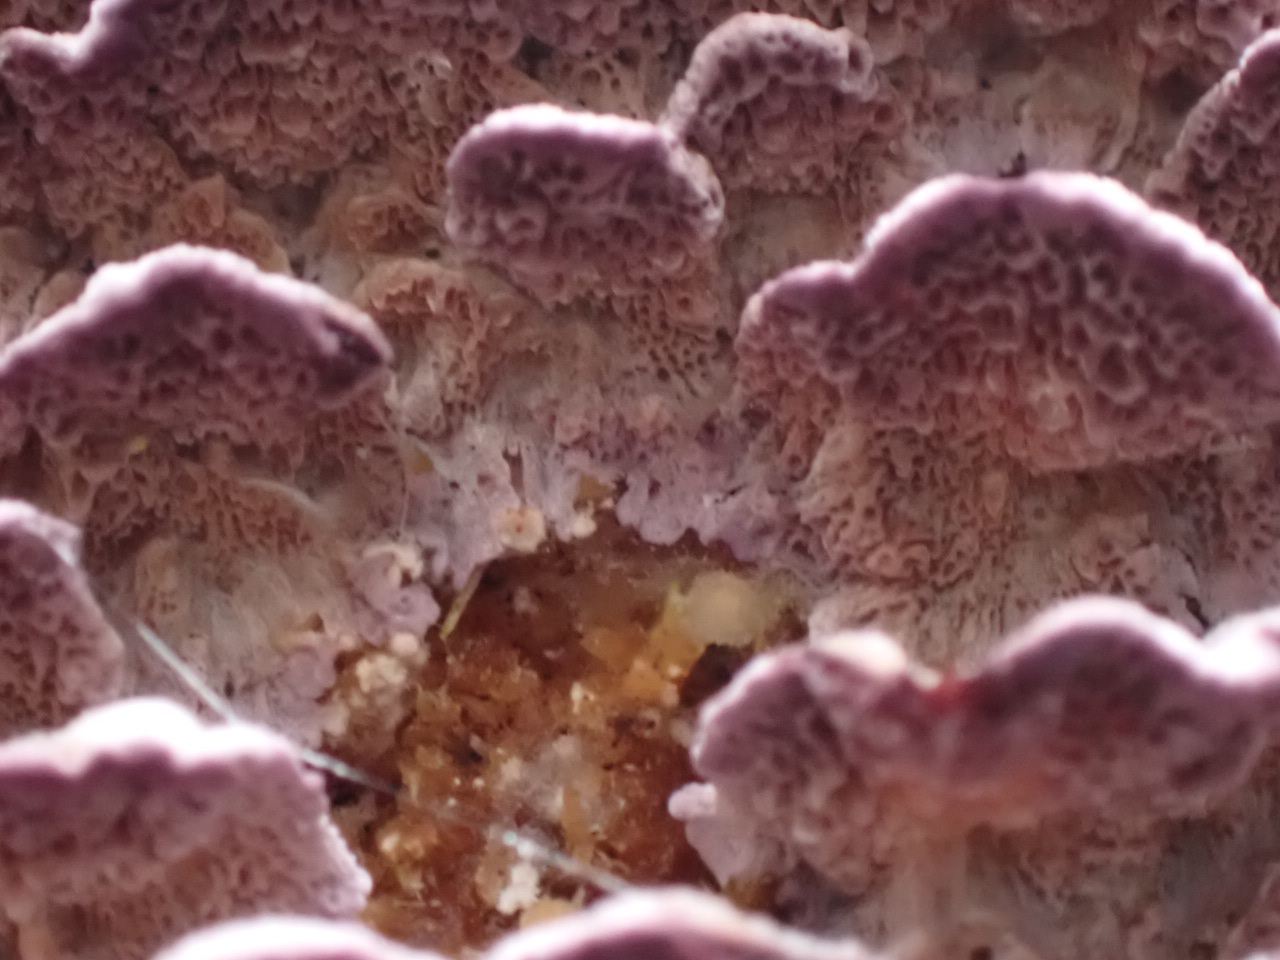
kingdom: Fungi
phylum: Basidiomycota
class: Agaricomycetes
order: Hymenochaetales
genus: Trichaptum
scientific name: Trichaptum abietinum
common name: almindelig violporesvamp
